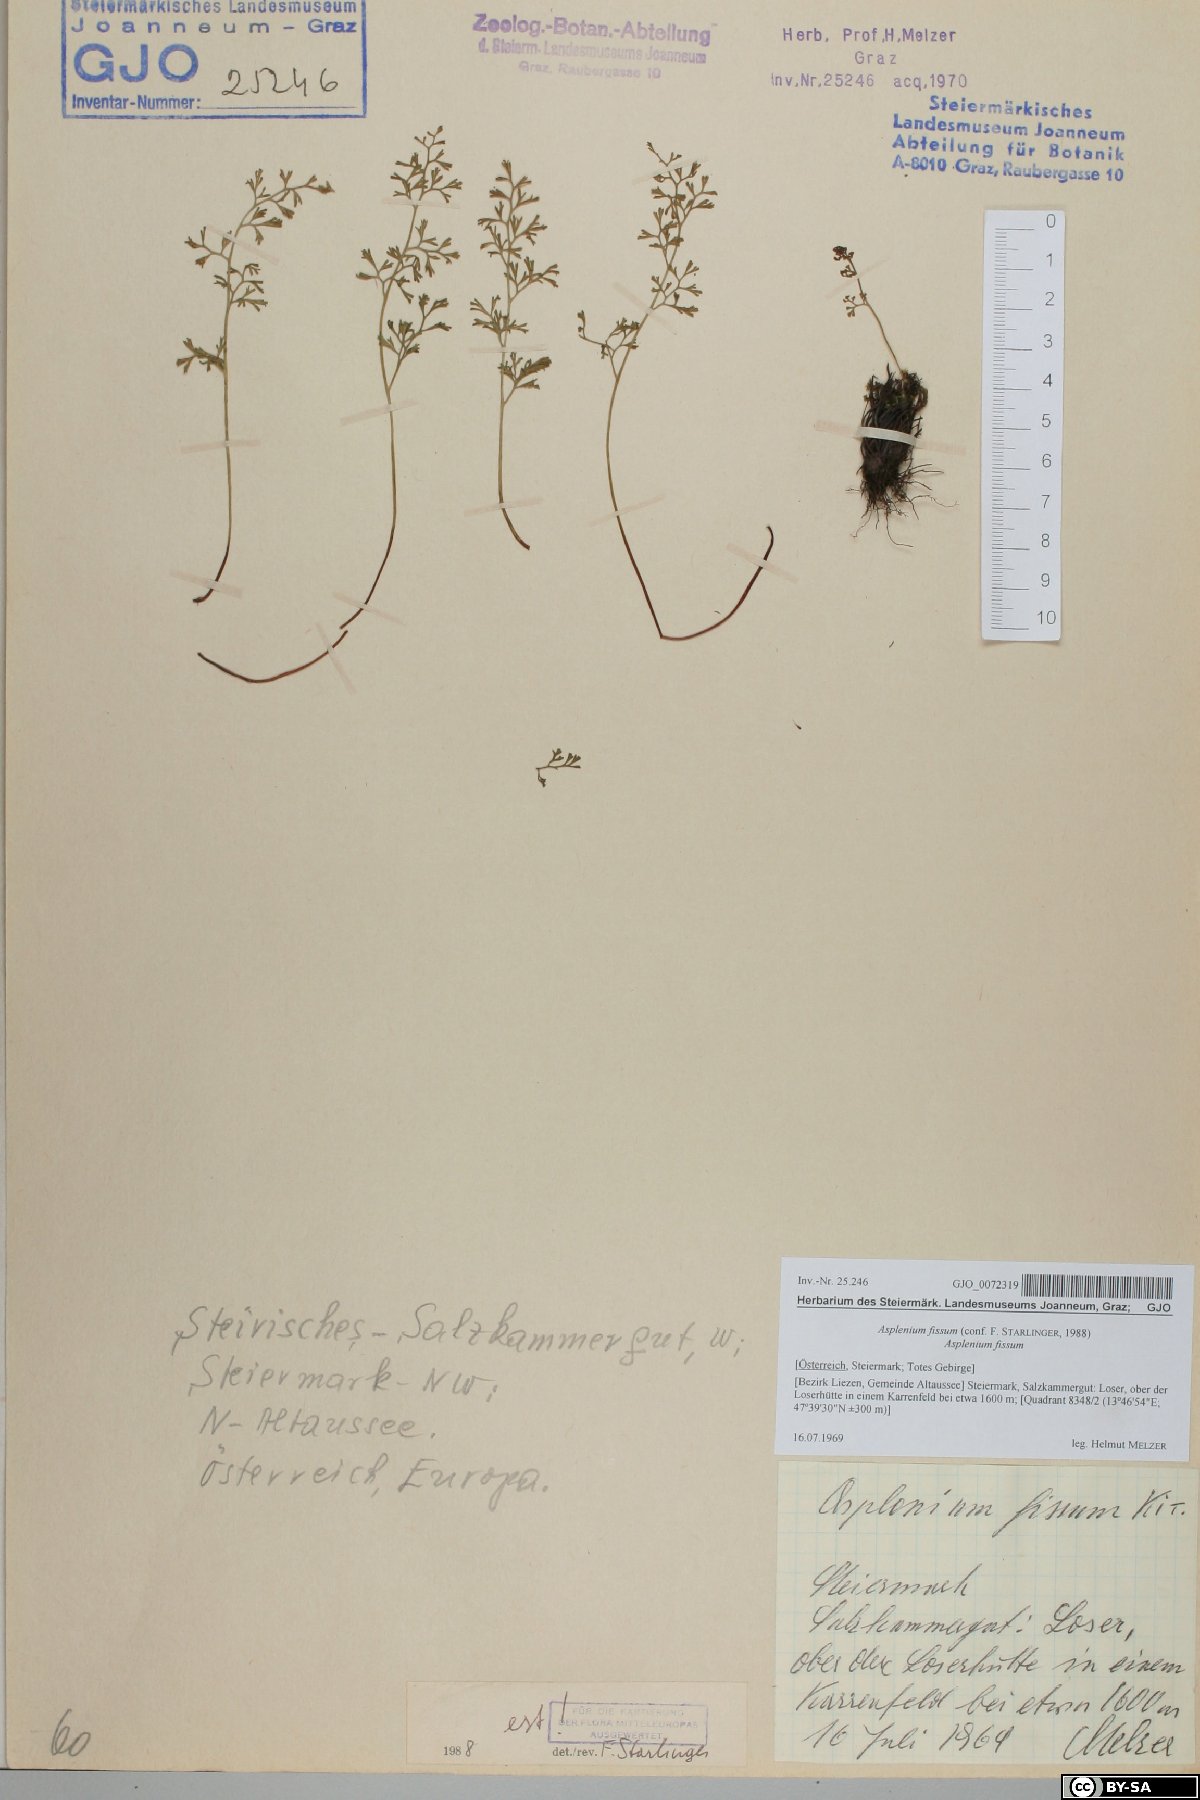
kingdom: Plantae
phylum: Tracheophyta
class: Polypodiopsida
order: Polypodiales
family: Aspleniaceae
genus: Asplenium
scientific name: Asplenium fissum
